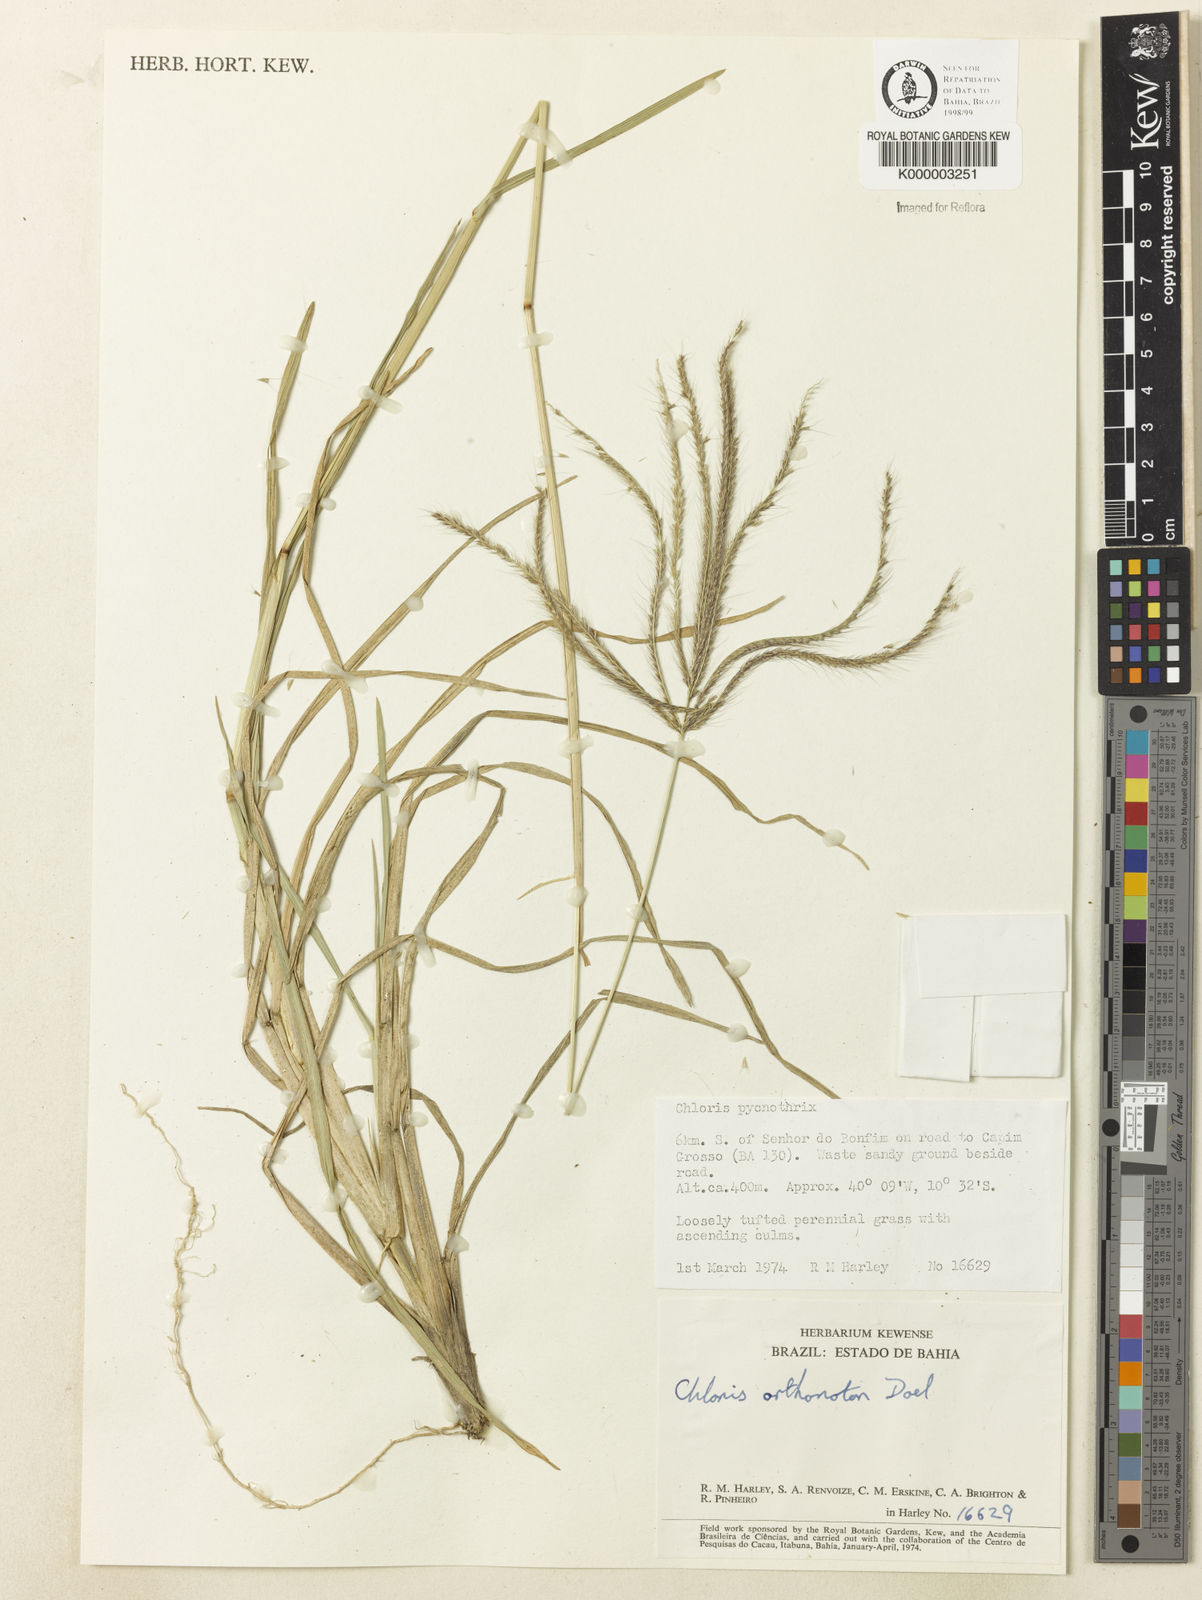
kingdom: Plantae
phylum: Tracheophyta
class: Liliopsida
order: Poales
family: Poaceae
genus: Chloris
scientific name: Chloris
